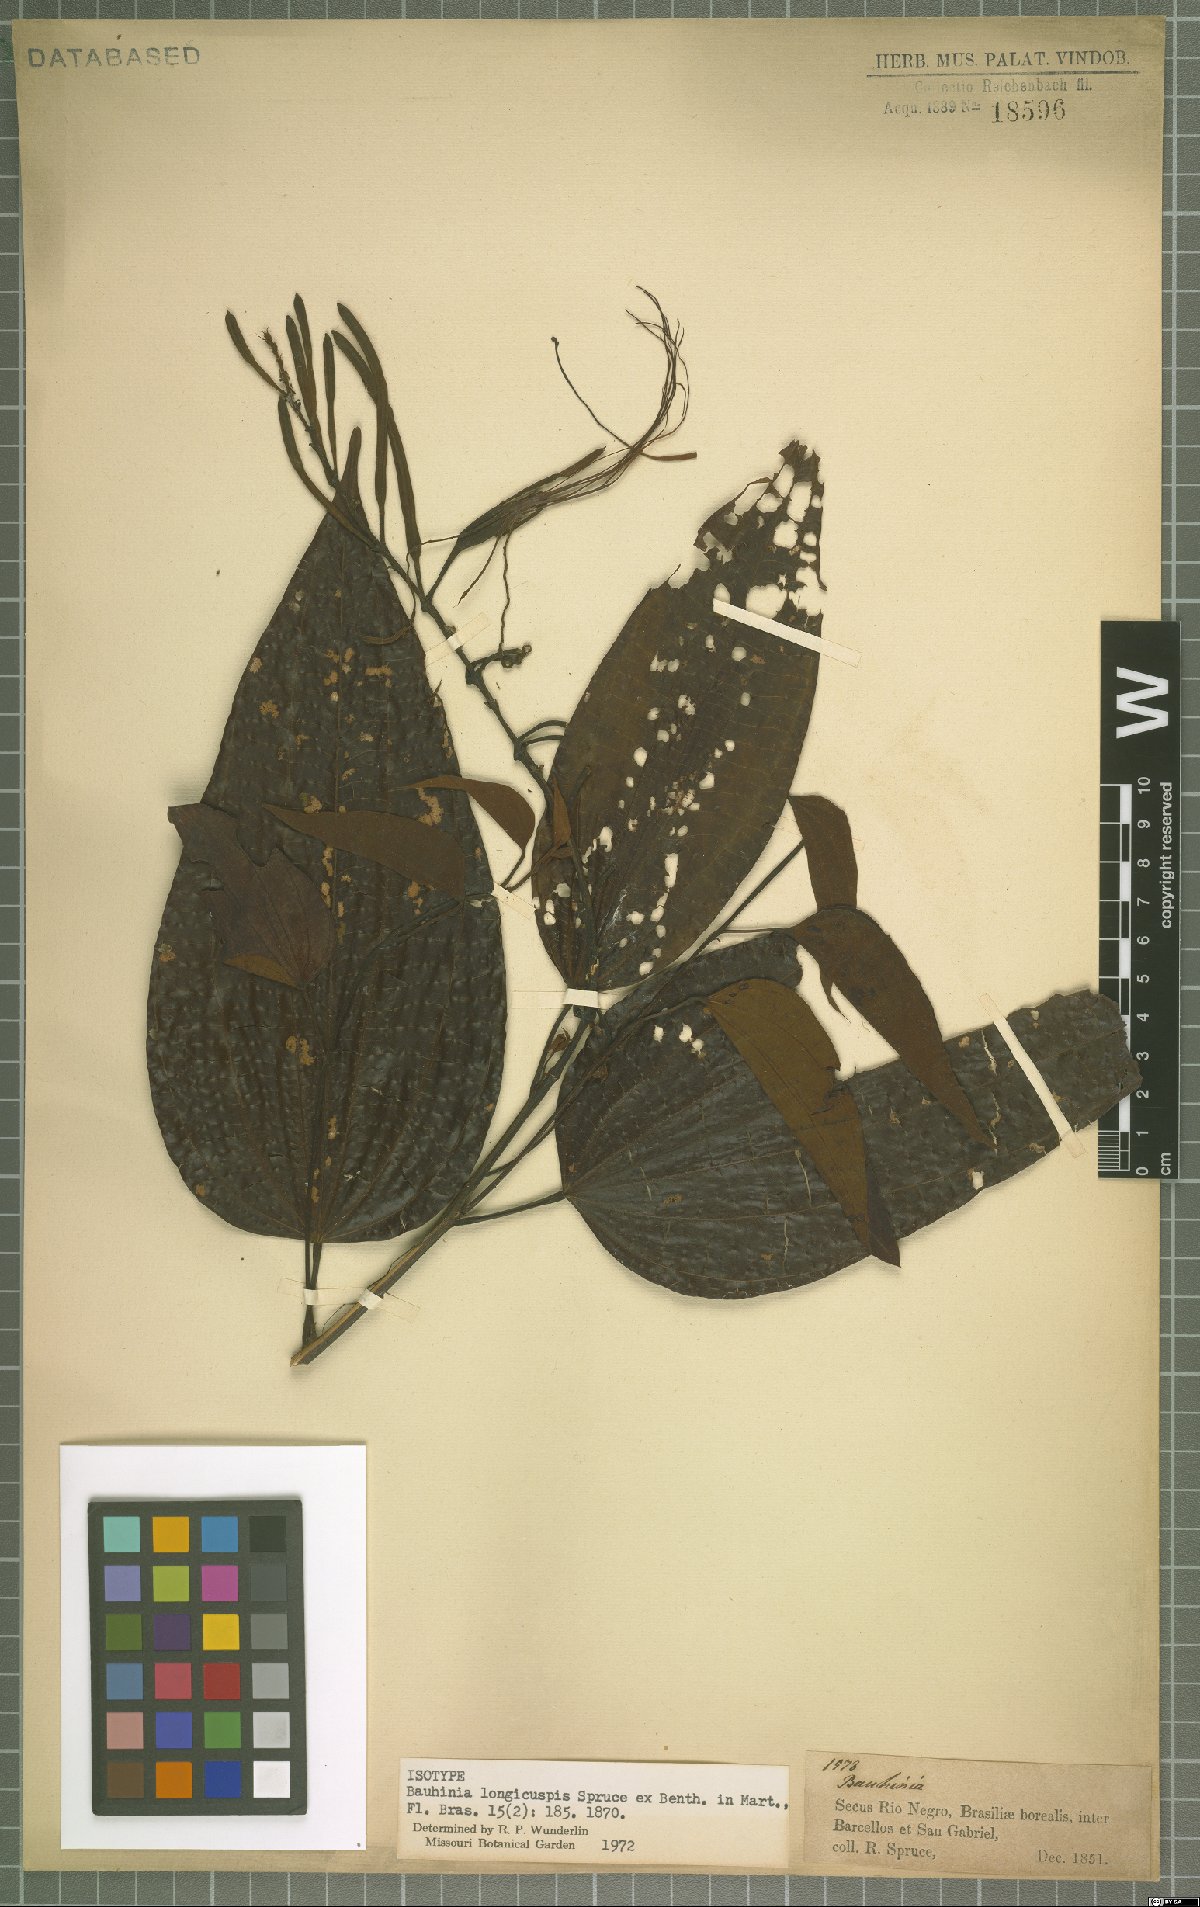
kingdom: Plantae
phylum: Tracheophyta
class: Magnoliopsida
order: Fabales
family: Fabaceae
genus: Bauhinia
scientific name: Bauhinia longicuspis
